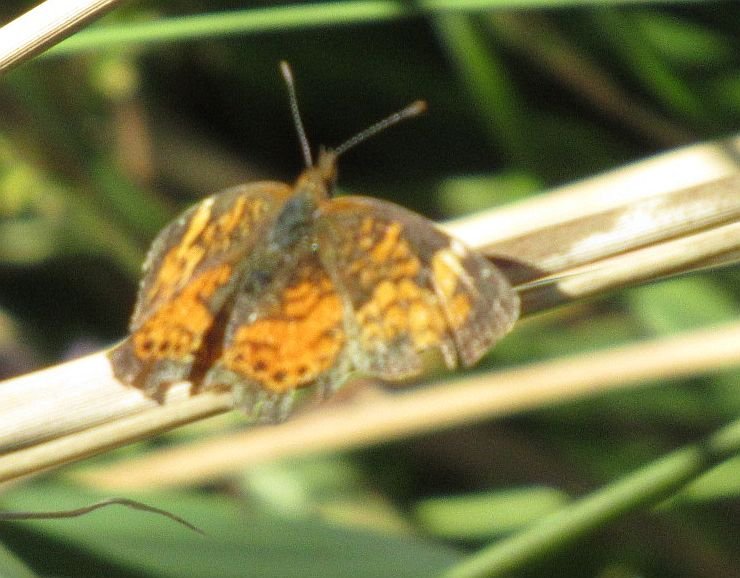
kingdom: Animalia
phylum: Arthropoda
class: Insecta
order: Lepidoptera
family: Nymphalidae
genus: Phyciodes
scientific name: Phyciodes tharos
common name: Northern Crescent
